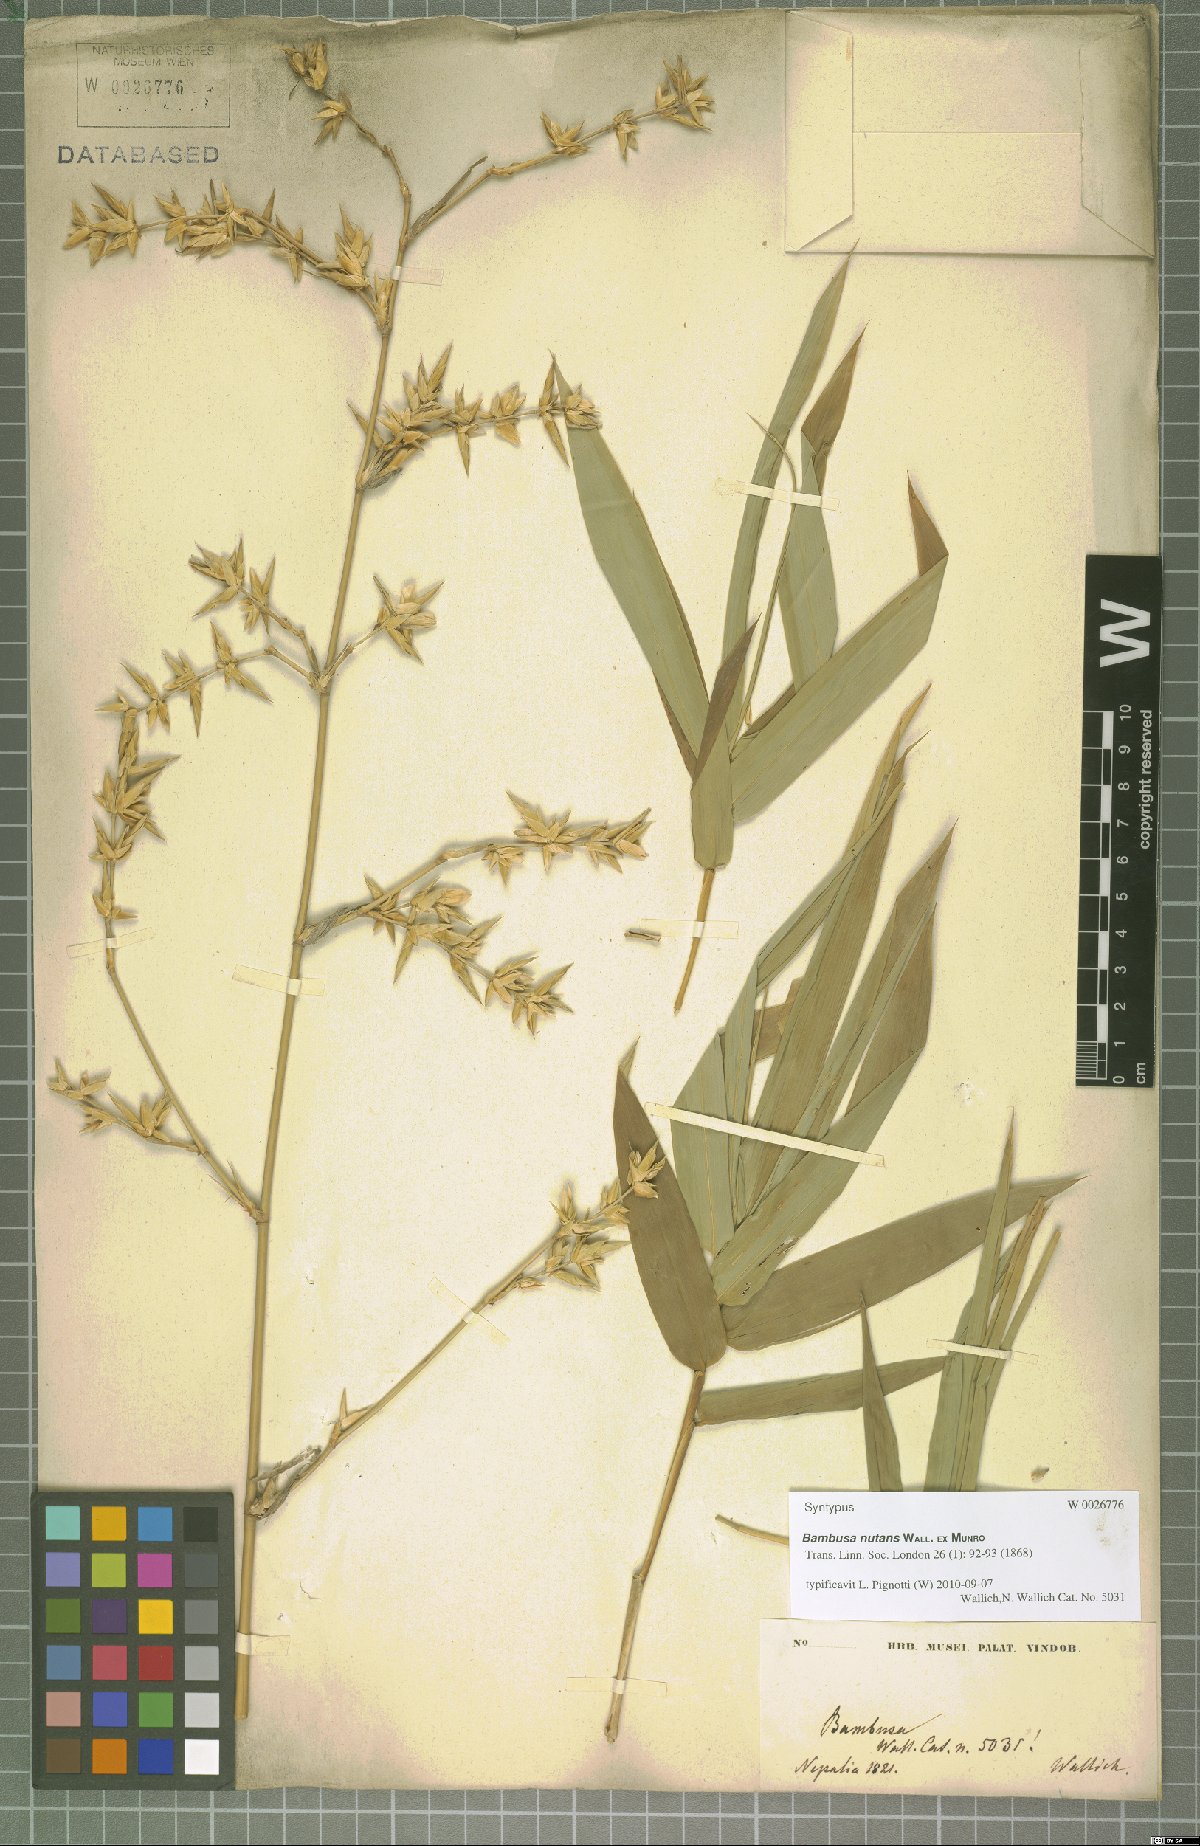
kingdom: Plantae
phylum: Tracheophyta
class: Liliopsida
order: Poales
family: Poaceae
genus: Bambusa
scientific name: Bambusa nutans
